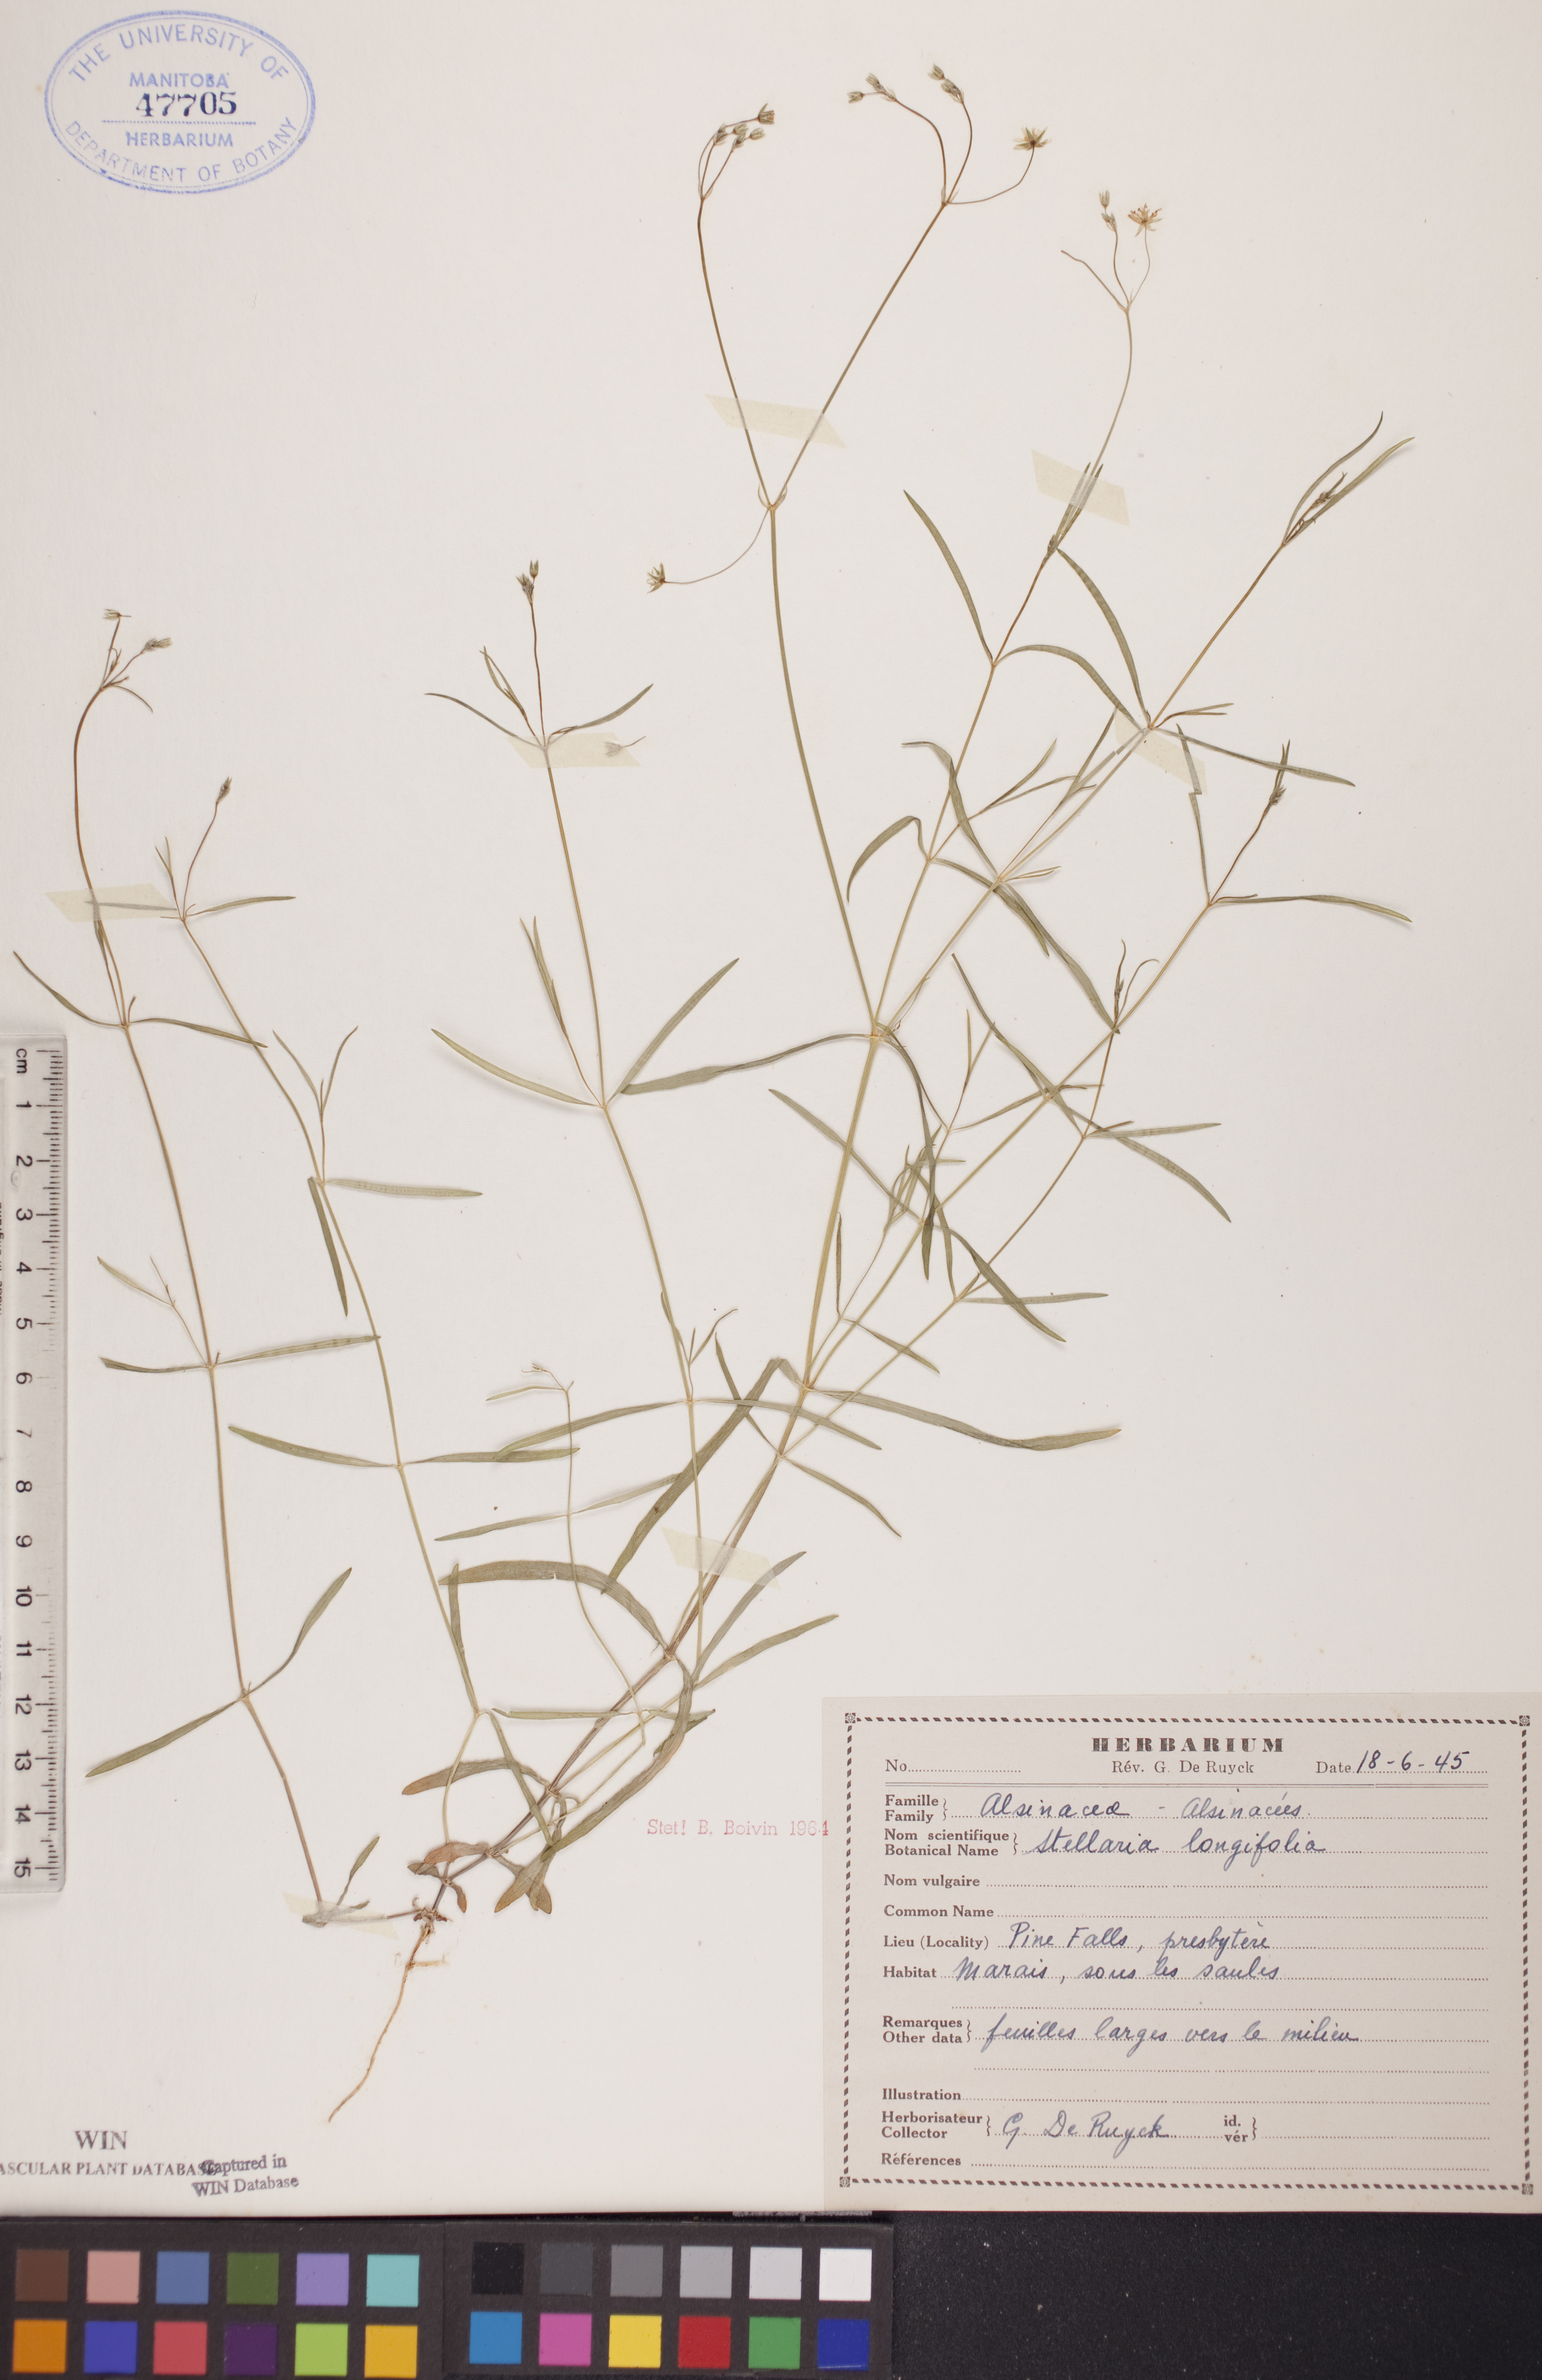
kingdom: Plantae
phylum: Tracheophyta
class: Magnoliopsida
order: Caryophyllales
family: Caryophyllaceae
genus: Stellaria
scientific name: Stellaria longifolia
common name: Long-leaved chickweed
